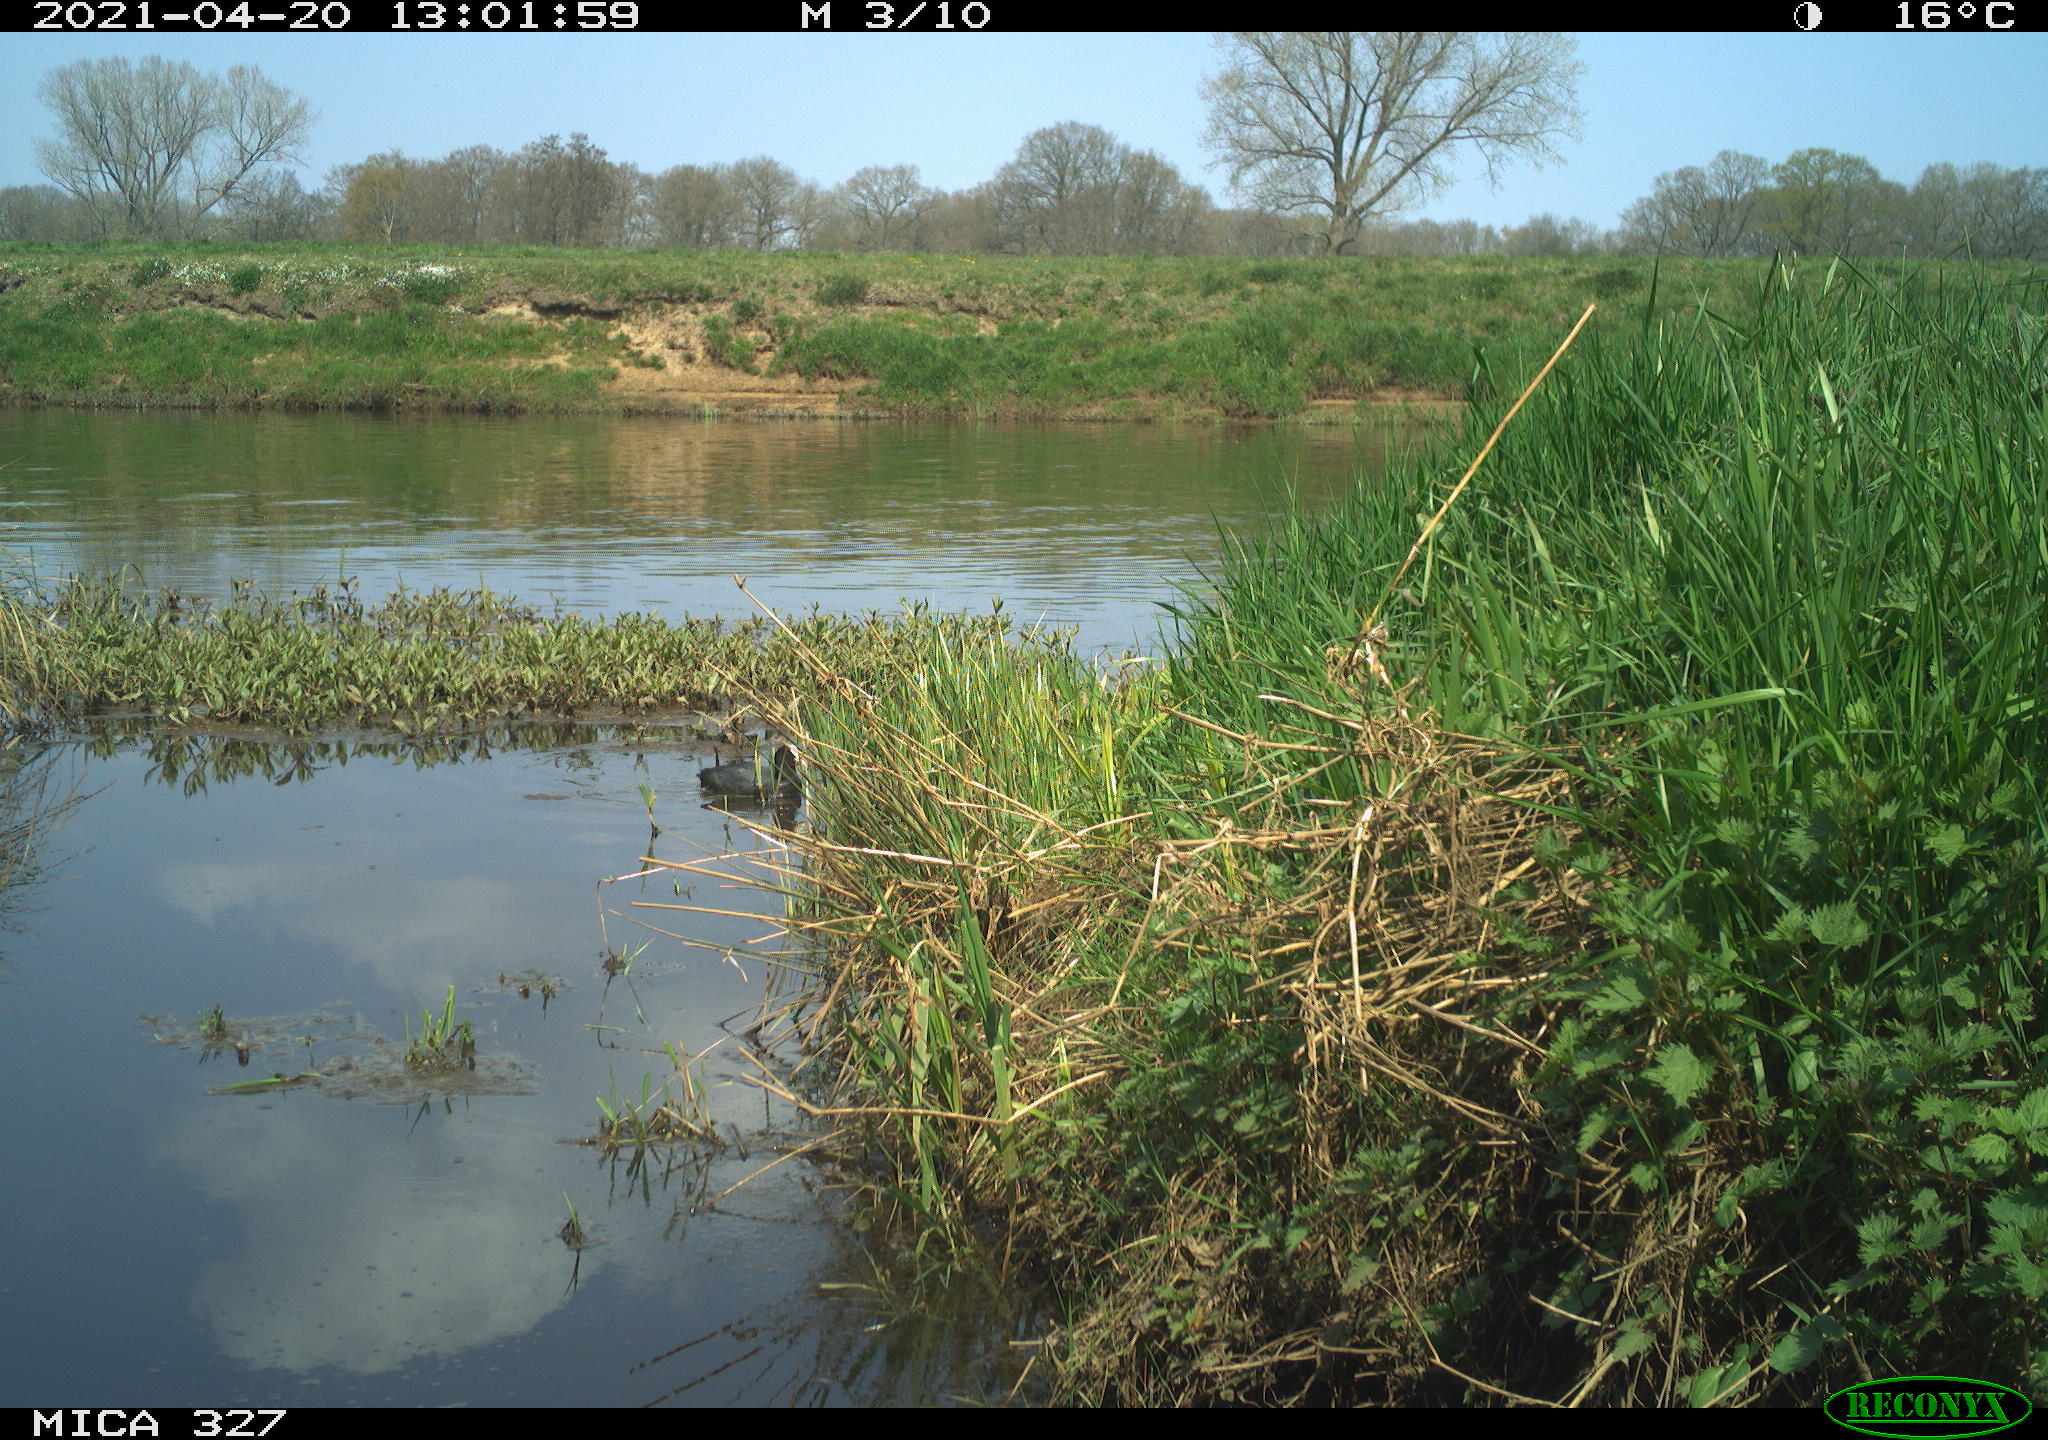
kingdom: Animalia
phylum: Chordata
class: Aves
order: Gruiformes
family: Rallidae
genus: Fulica
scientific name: Fulica atra
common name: Eurasian coot
